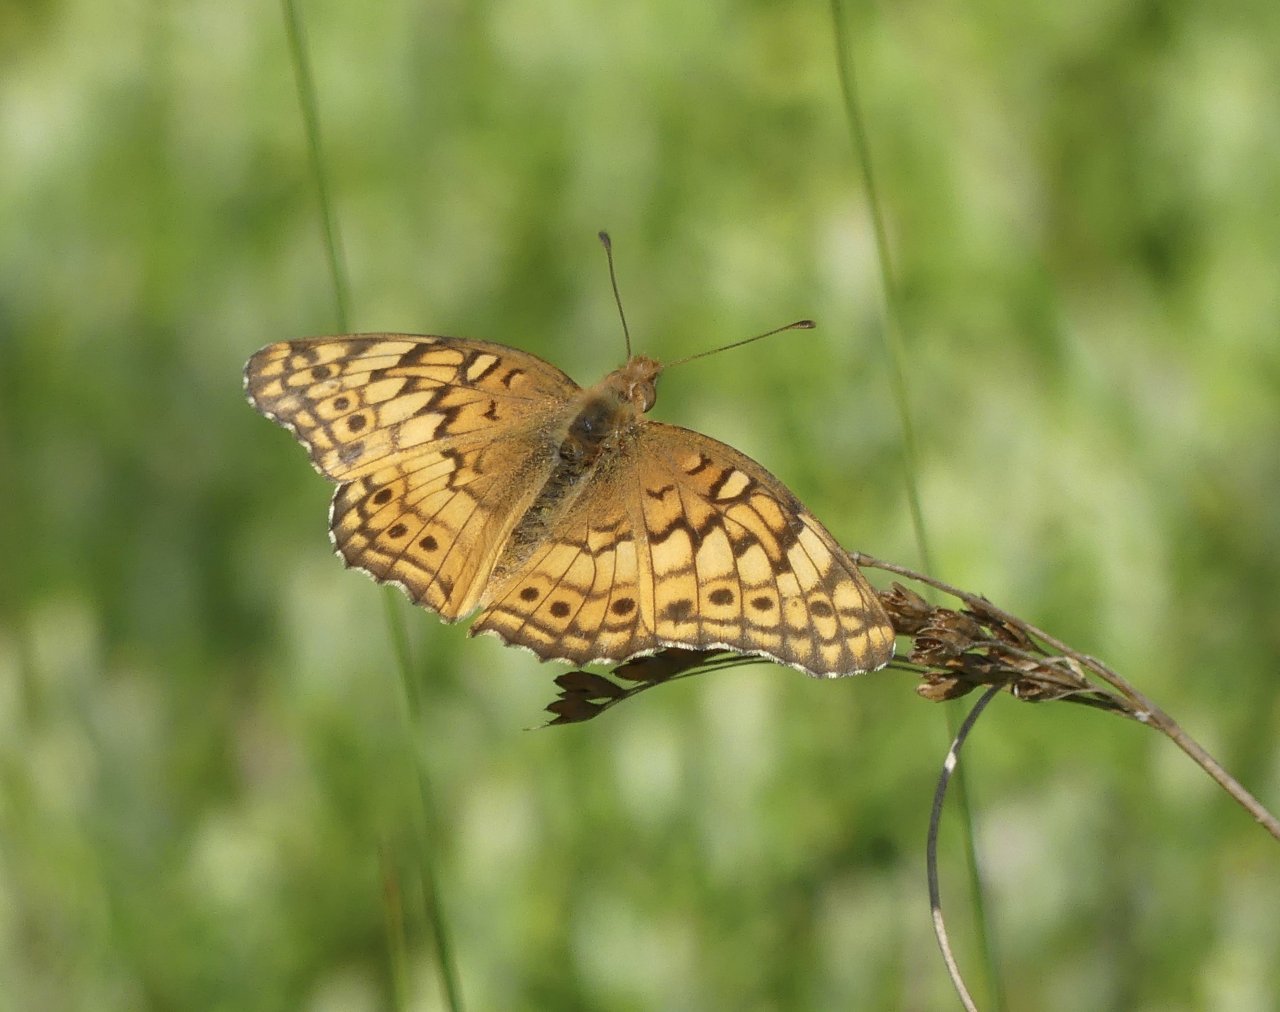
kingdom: Animalia
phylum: Arthropoda
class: Insecta
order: Lepidoptera
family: Nymphalidae
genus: Euptoieta
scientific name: Euptoieta claudia
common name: Variegated Fritillary
